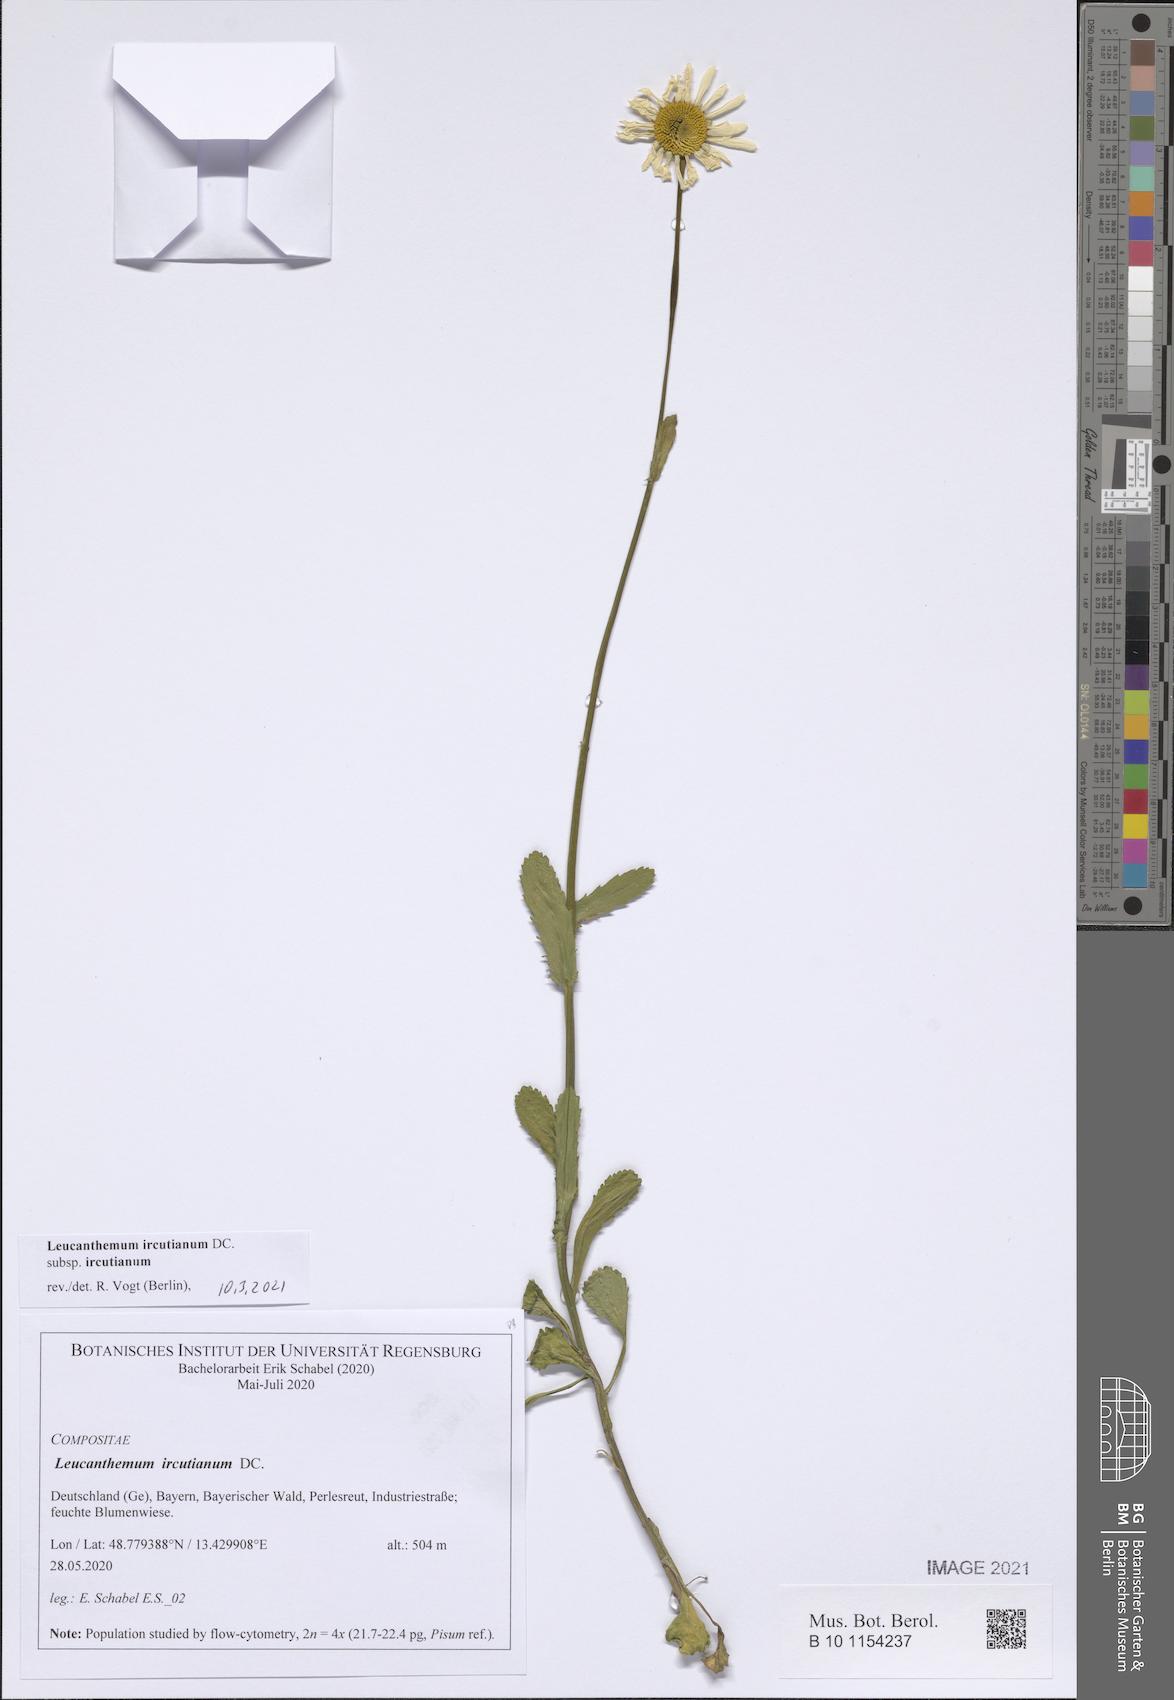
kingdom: Plantae
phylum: Tracheophyta
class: Magnoliopsida
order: Asterales
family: Asteraceae
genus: Leucanthemum
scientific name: Leucanthemum ircutianum
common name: Daisy
